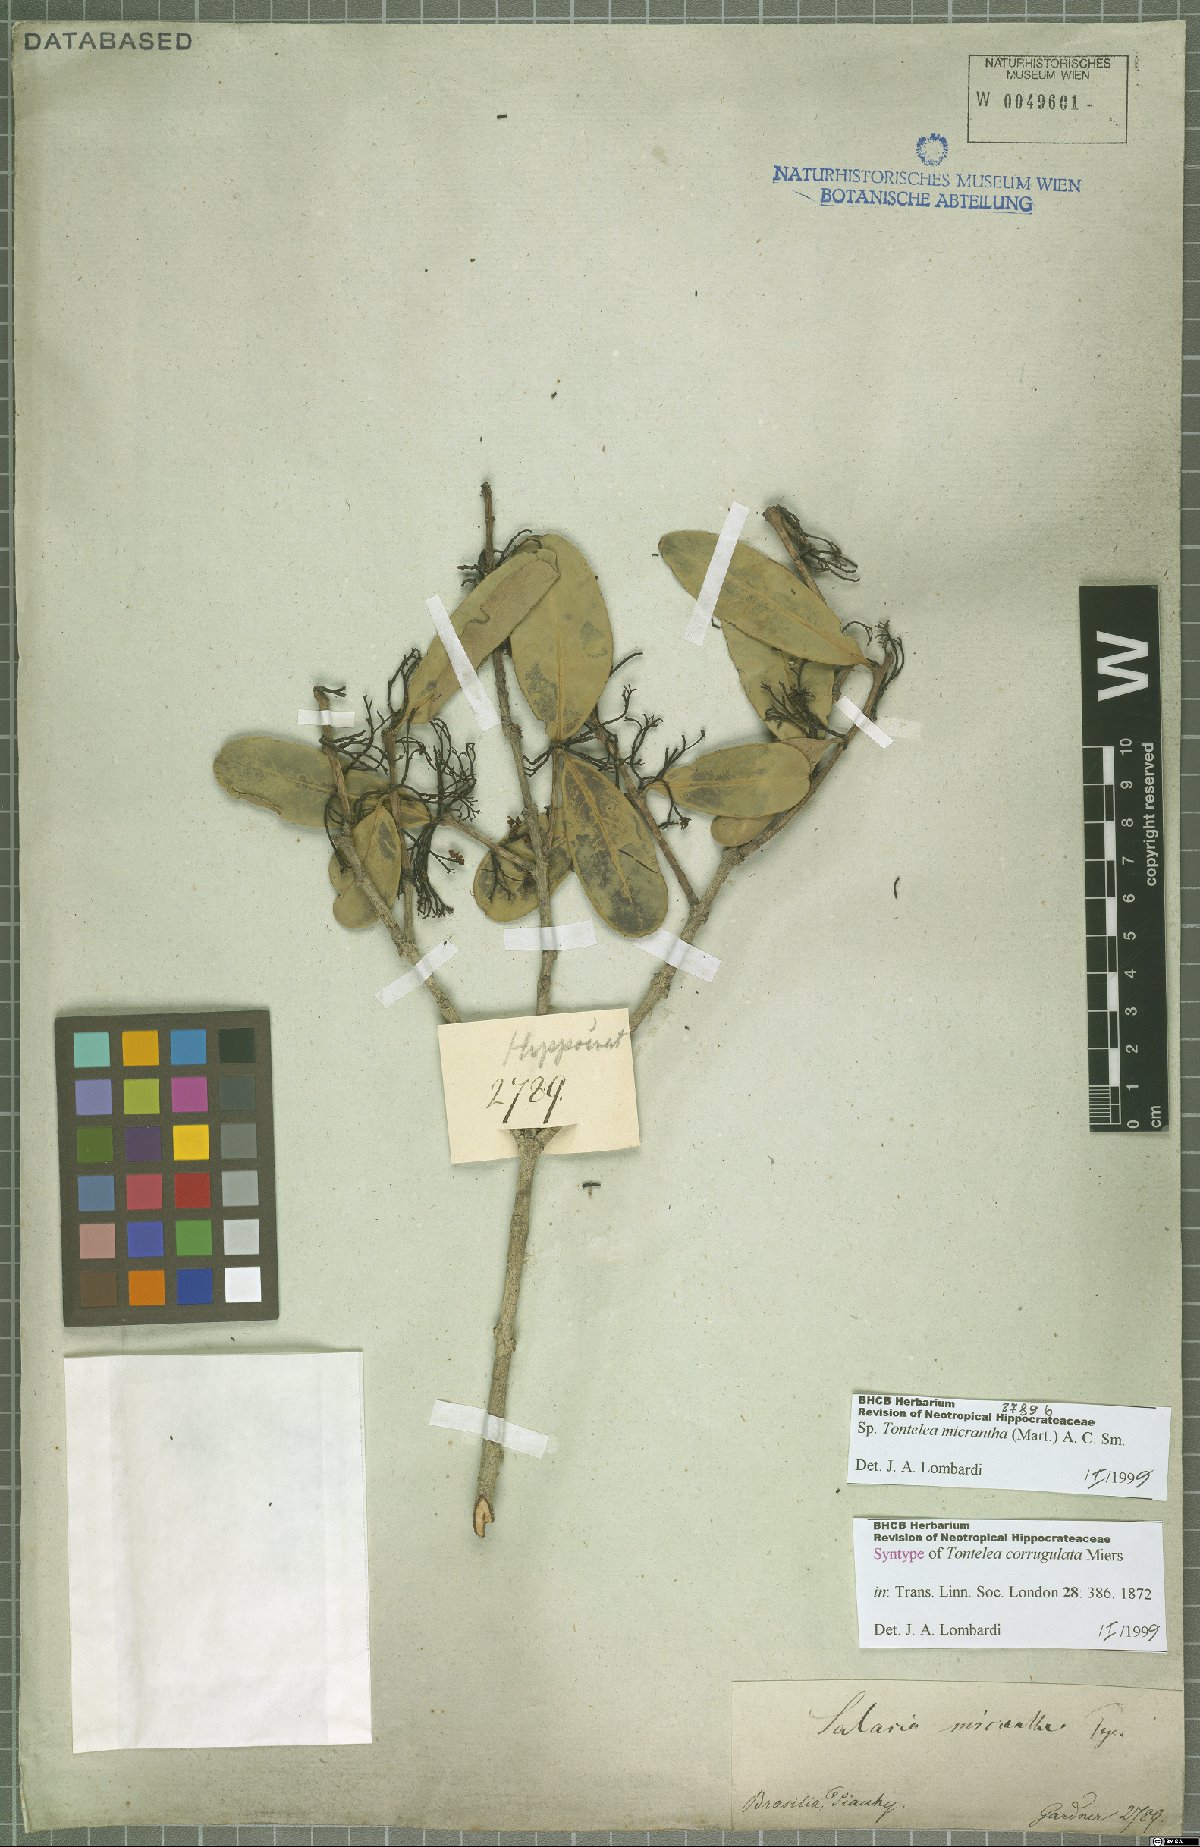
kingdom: Plantae
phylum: Tracheophyta
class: Magnoliopsida
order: Celastrales
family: Celastraceae
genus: Tontelea
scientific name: Tontelea micrantha
